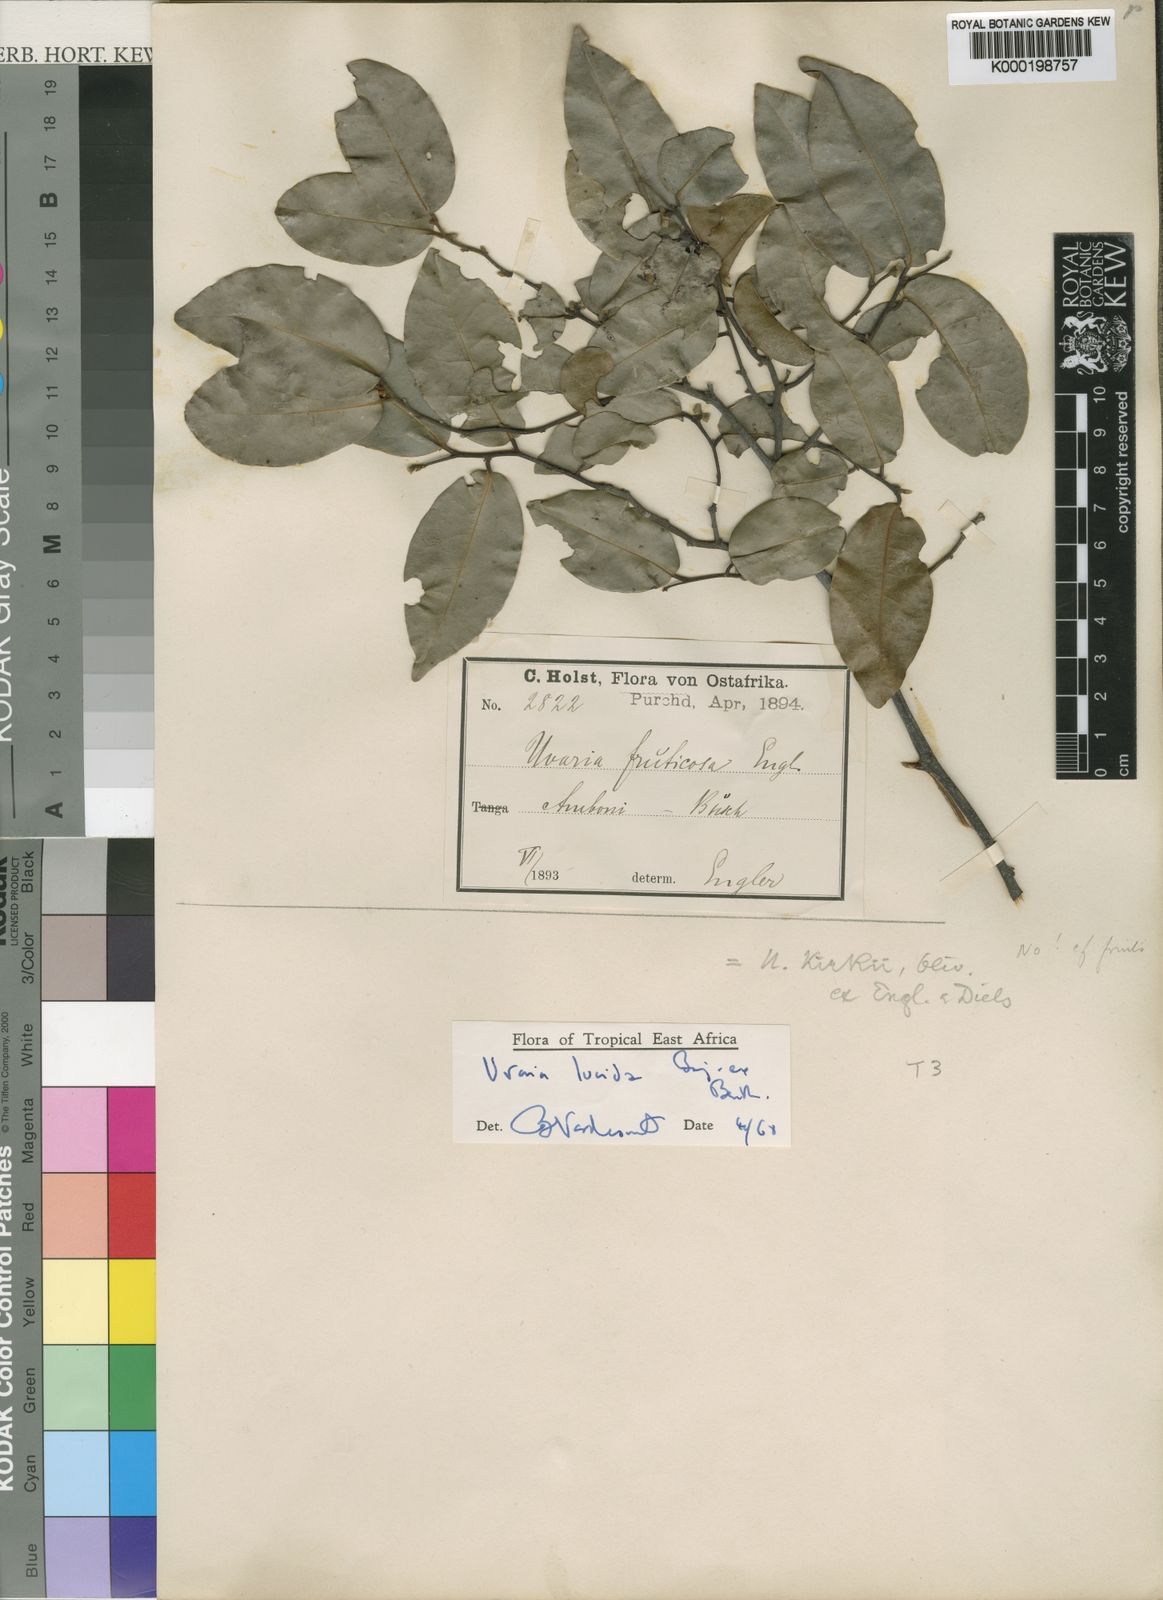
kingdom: Plantae
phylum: Tracheophyta
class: Magnoliopsida
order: Magnoliales
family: Annonaceae
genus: Uvaria
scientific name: Uvaria lucida
